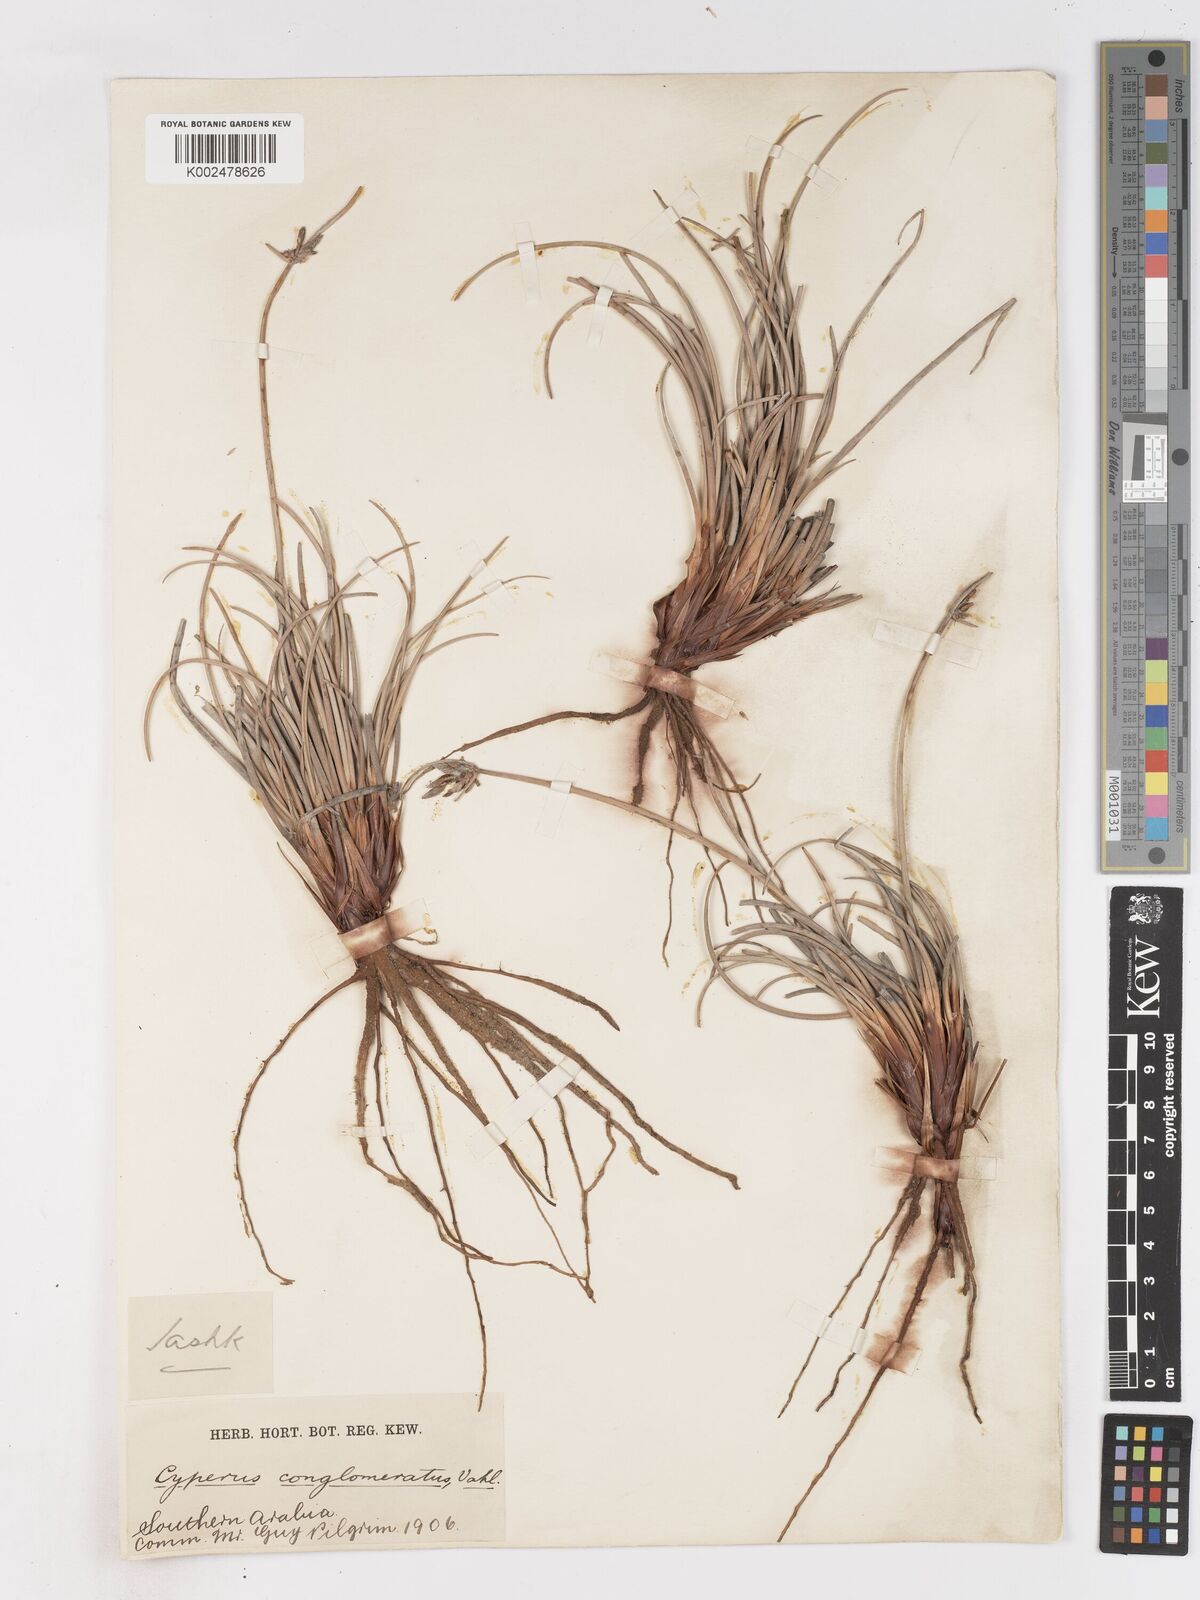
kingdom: Plantae
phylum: Tracheophyta
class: Liliopsida
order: Poales
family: Cyperaceae
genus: Cyperus
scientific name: Cyperus conglomeratus
